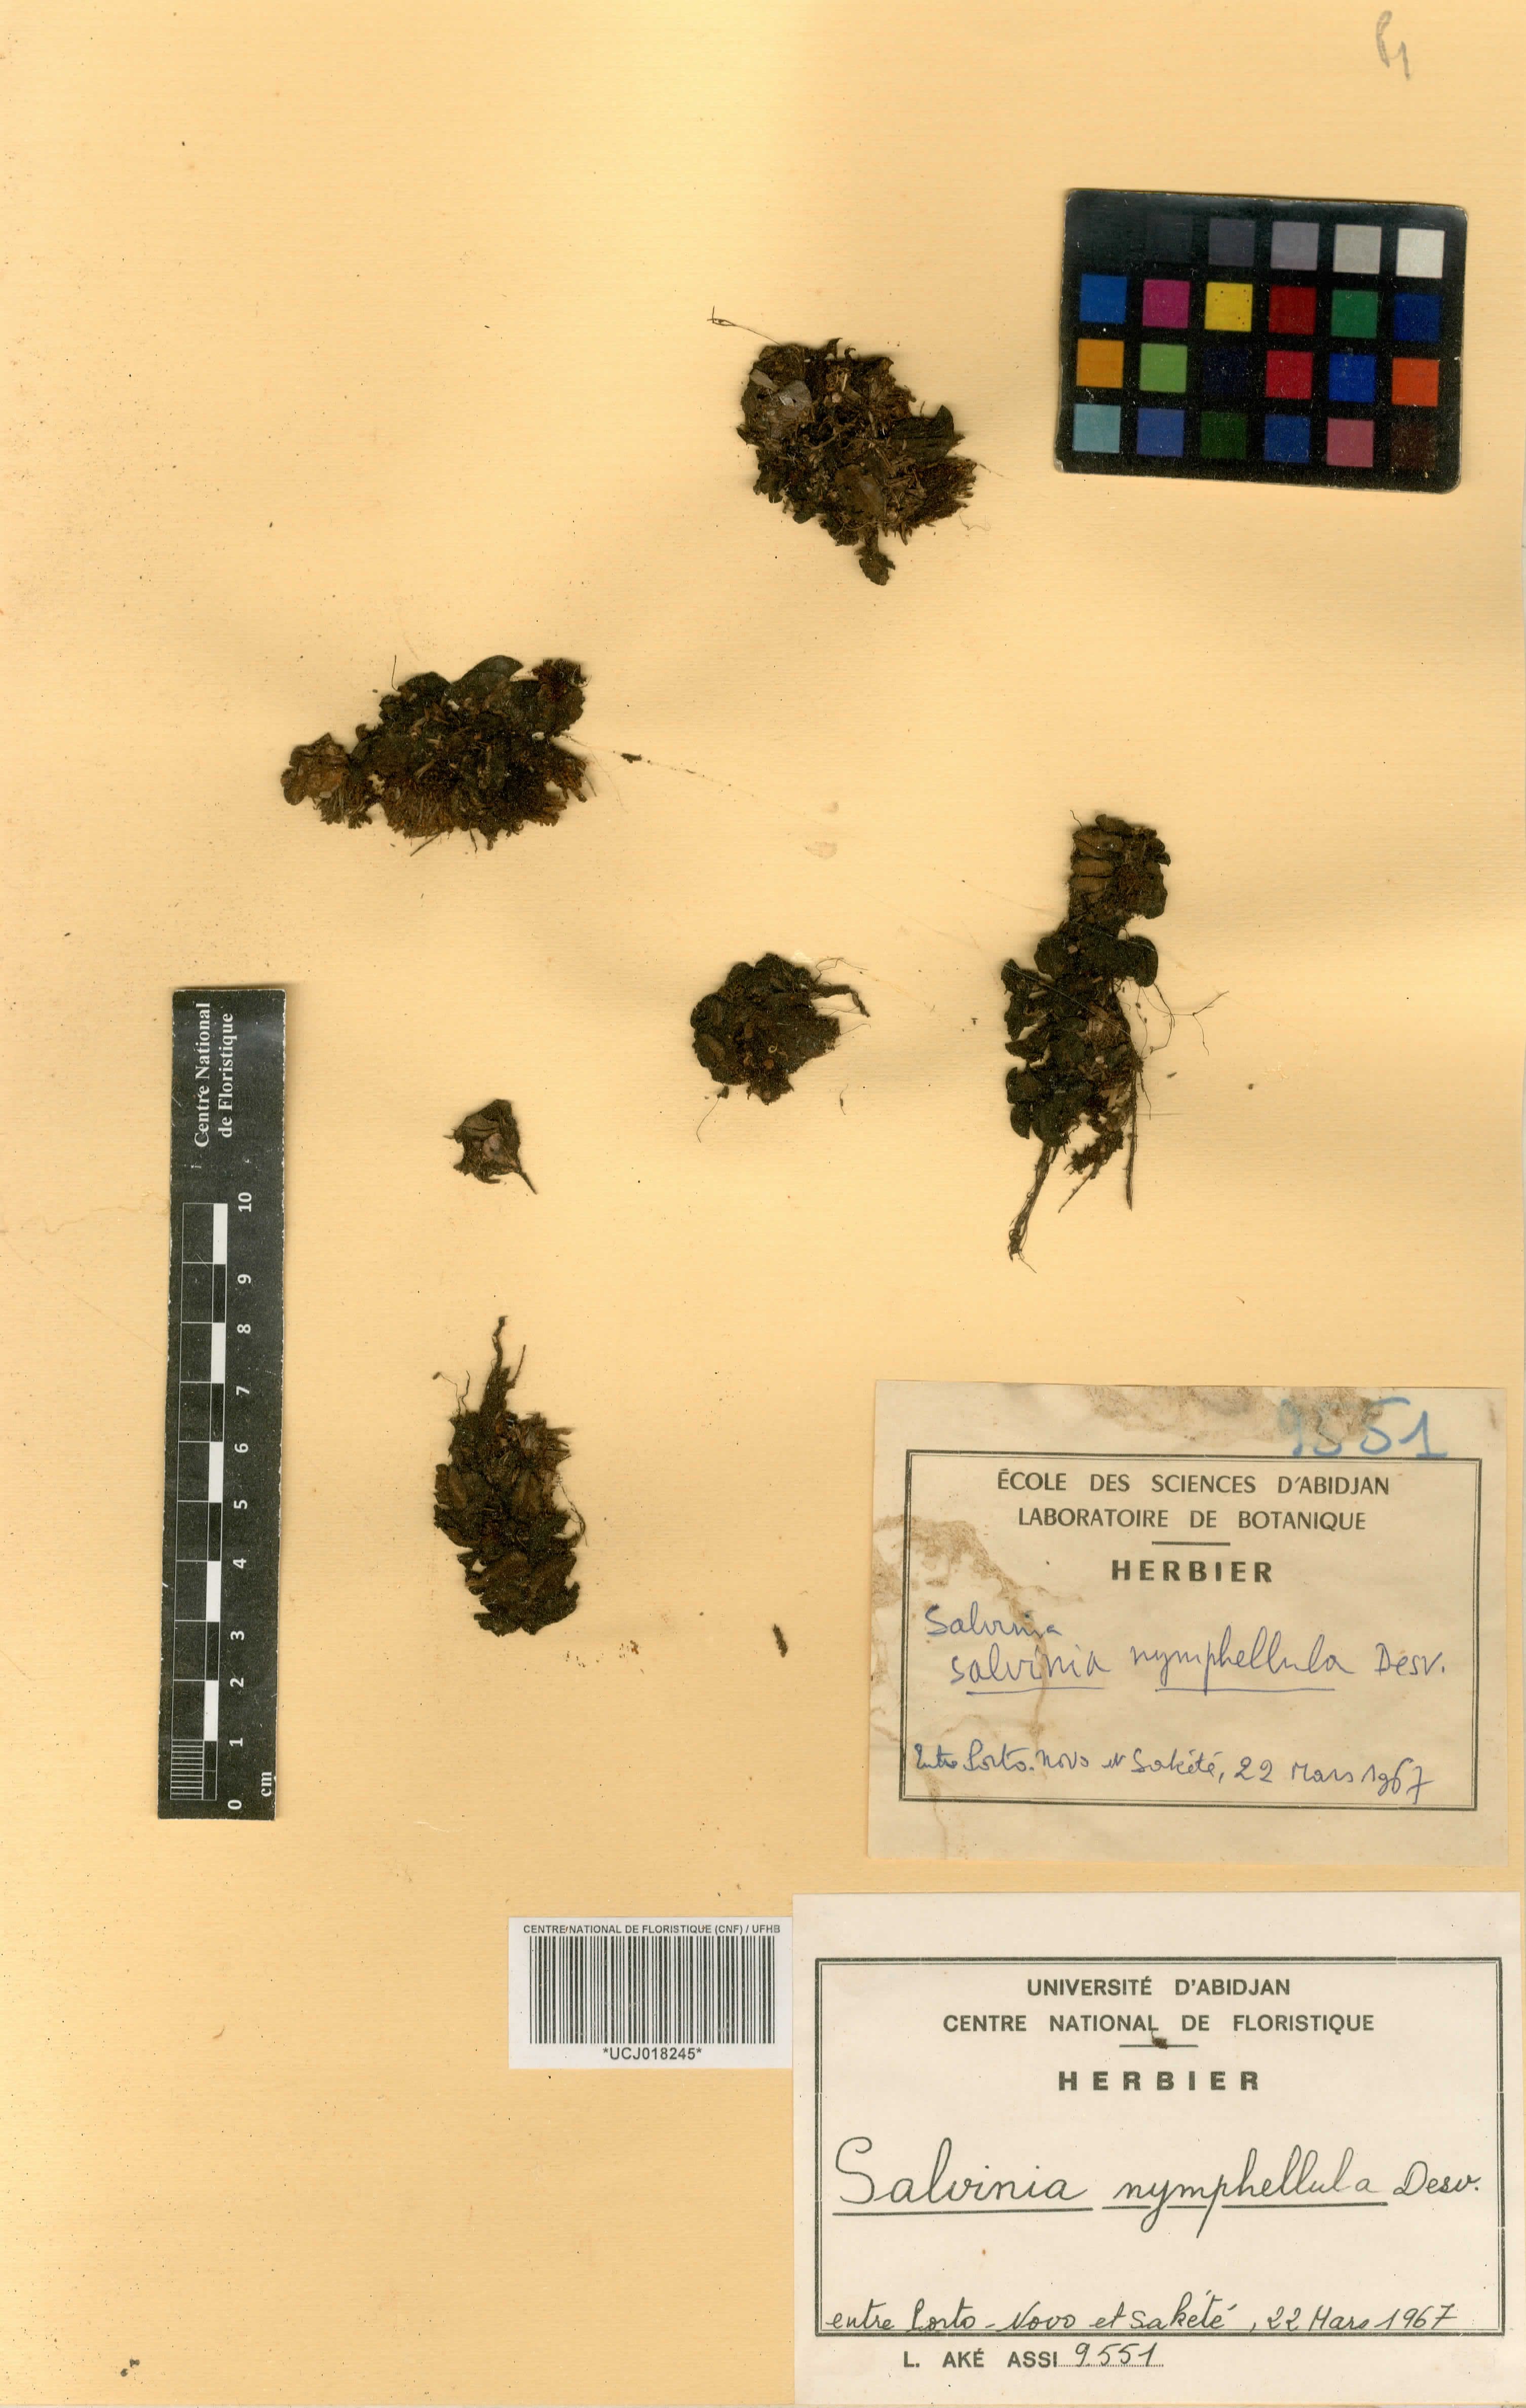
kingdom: Plantae
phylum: Tracheophyta
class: Polypodiopsida
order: Salviniales
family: Salviniaceae
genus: Salvinia
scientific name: Salvinia nymphellula
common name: Floating fern
